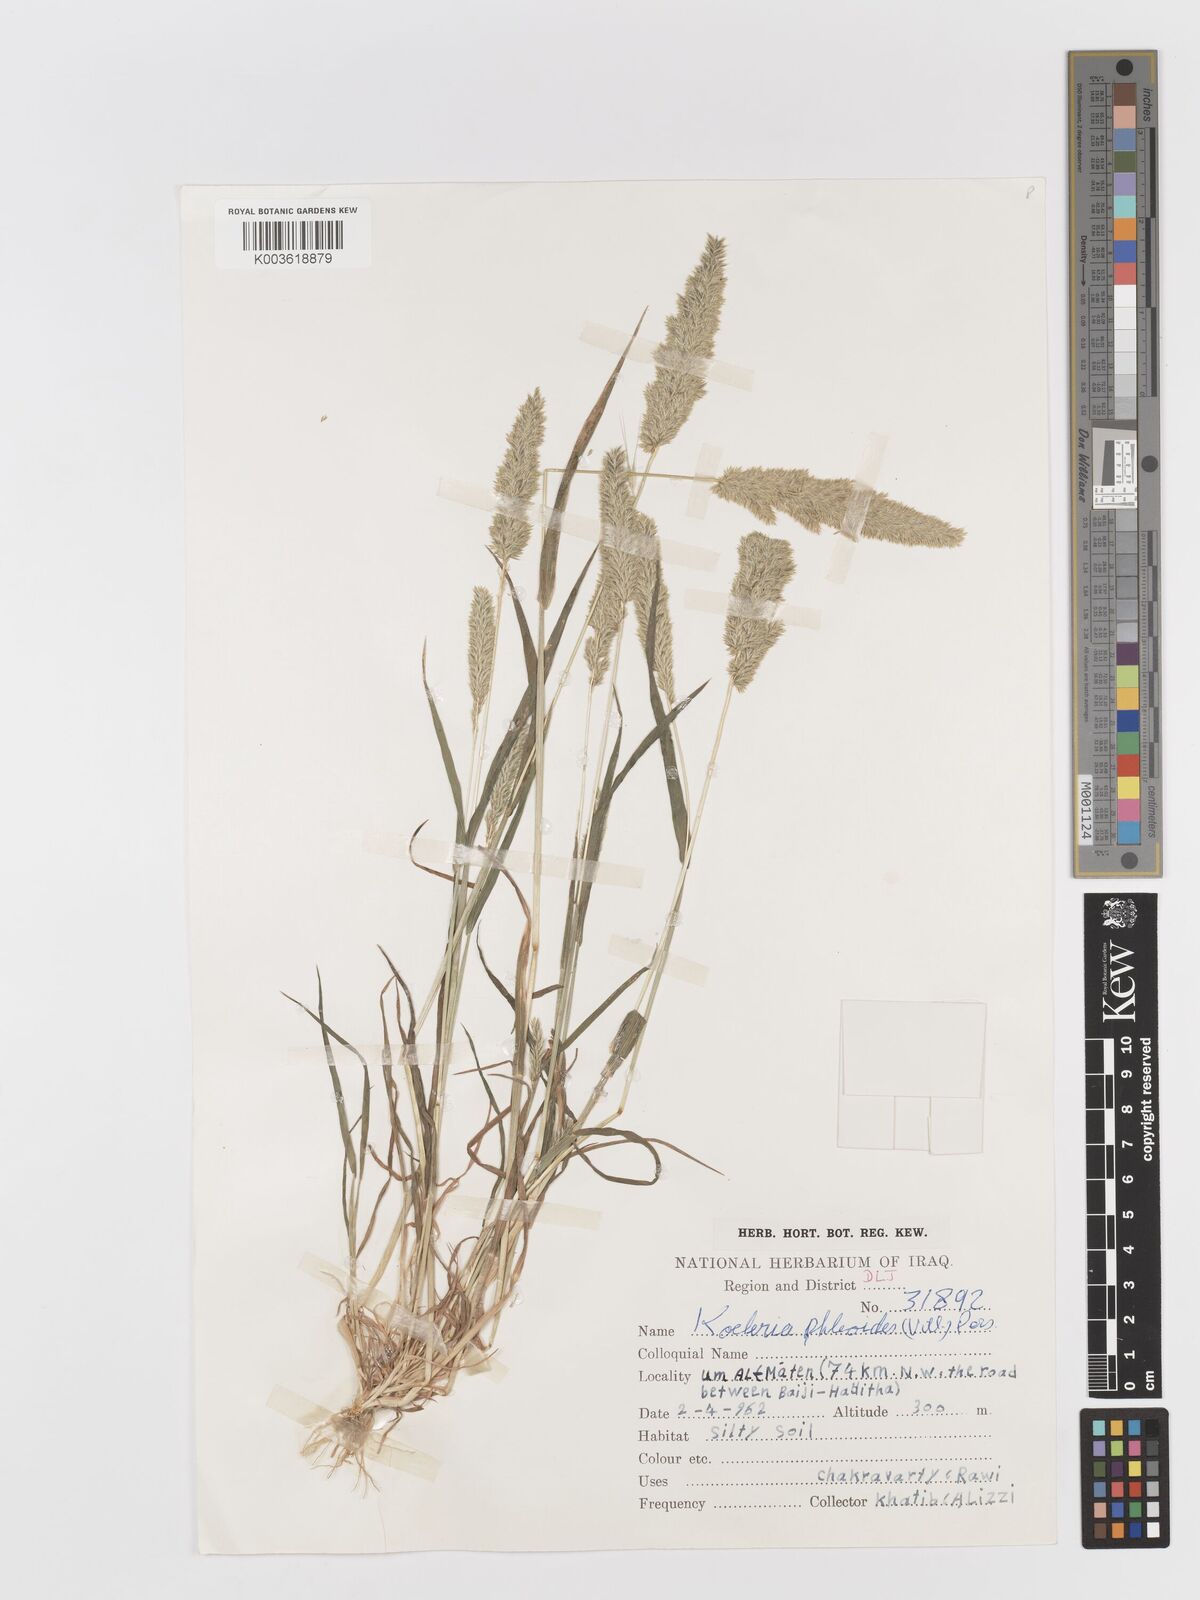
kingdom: Plantae
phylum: Tracheophyta
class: Liliopsida
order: Poales
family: Poaceae
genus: Rostraria
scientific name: Rostraria cristata
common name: Mediterranean hair-grass
